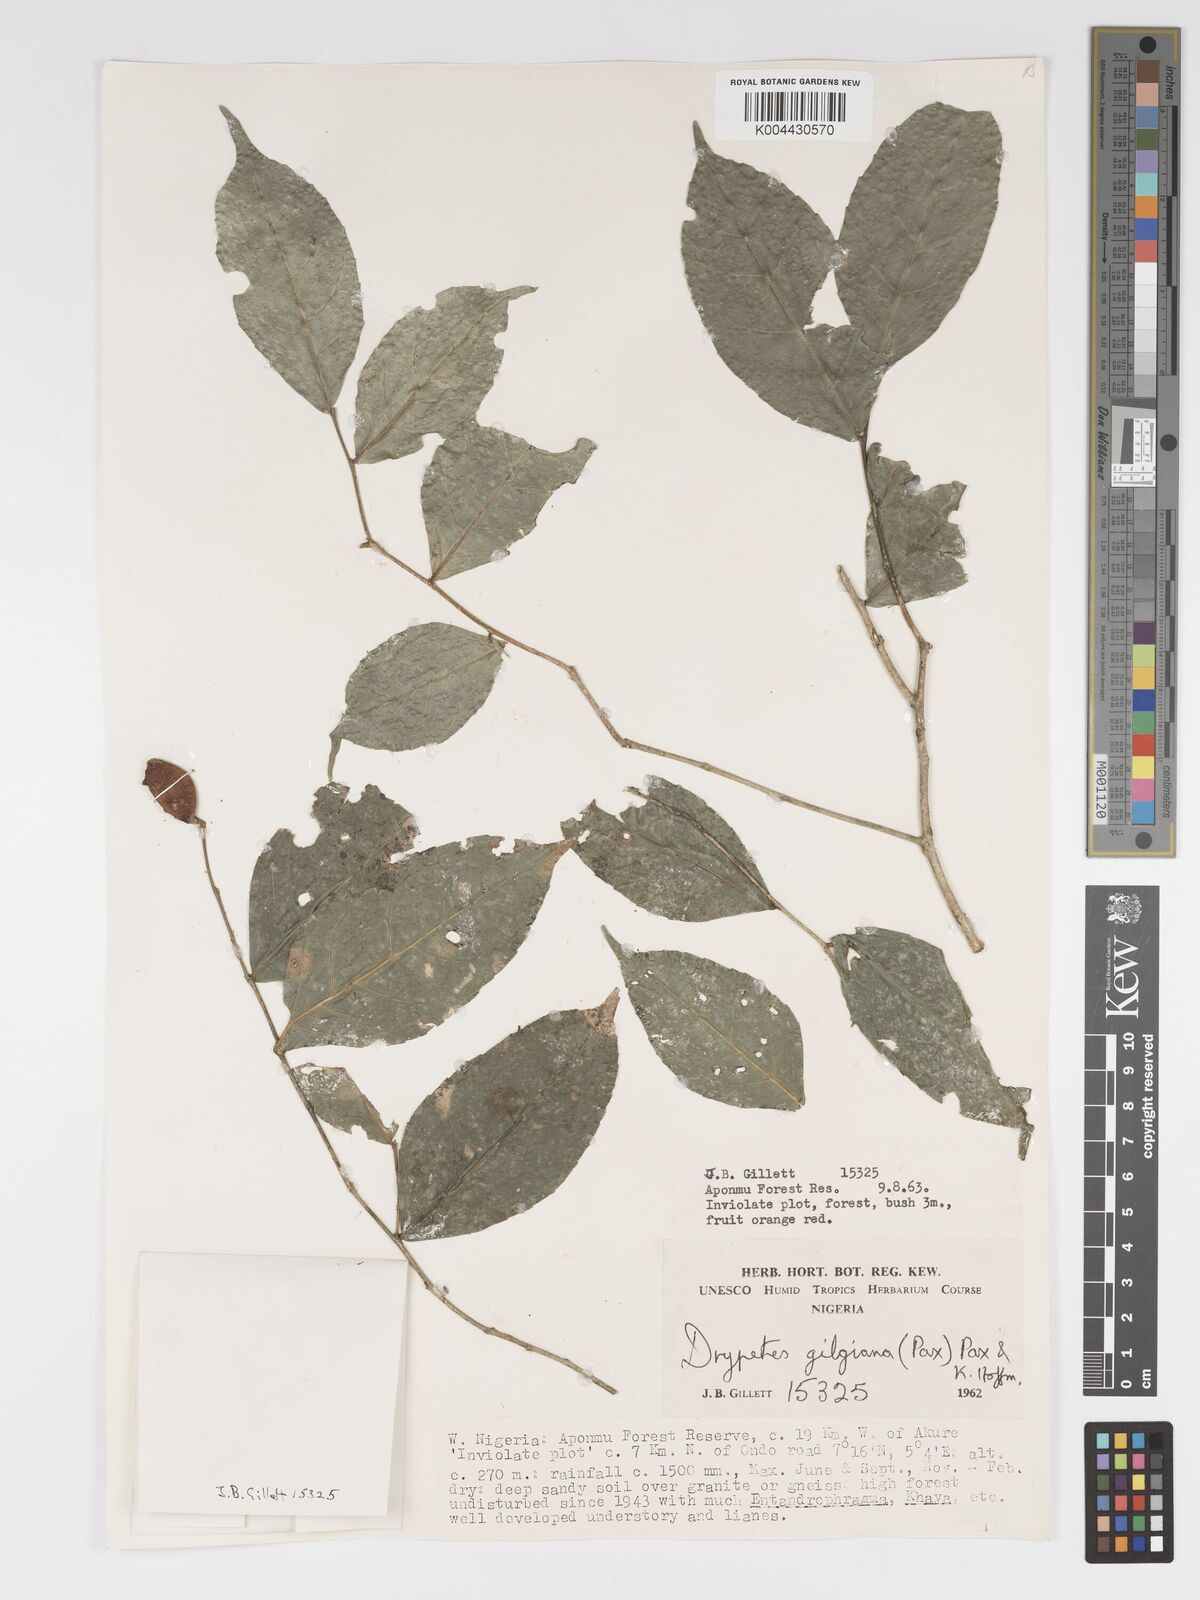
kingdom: Plantae
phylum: Tracheophyta
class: Magnoliopsida
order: Malpighiales
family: Putranjivaceae
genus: Drypetes
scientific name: Drypetes gilgiana
